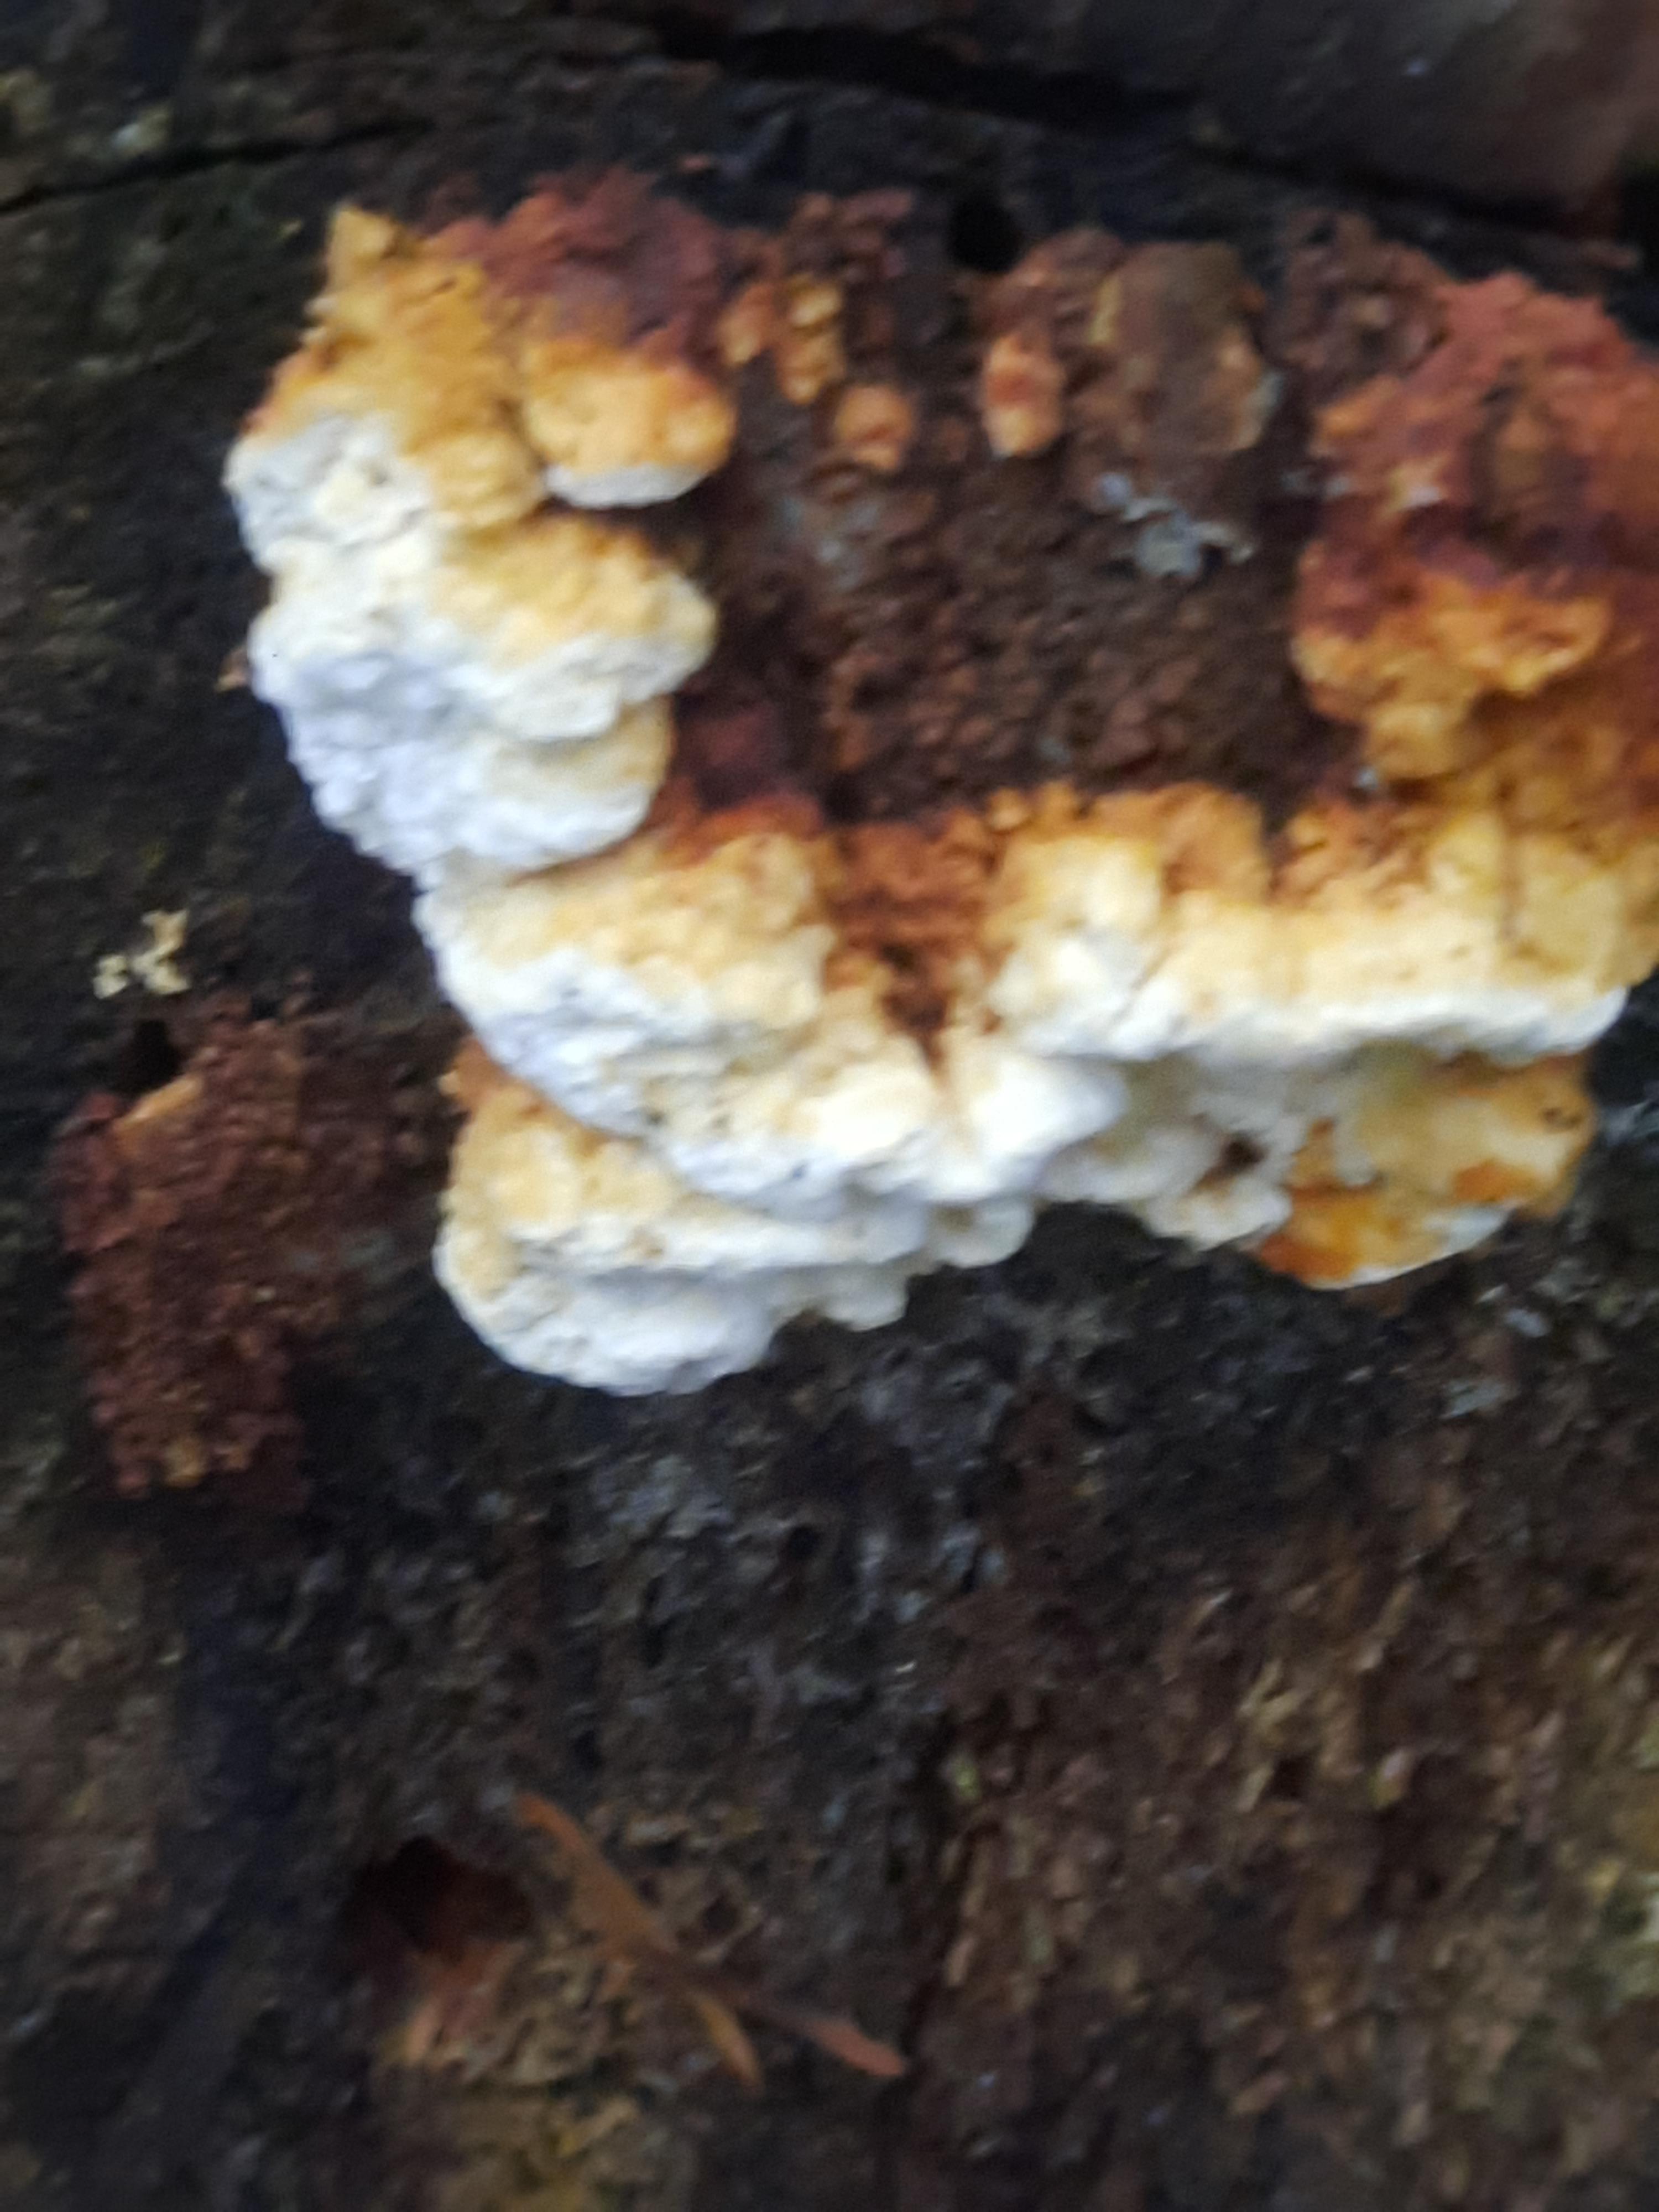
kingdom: Fungi
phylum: Basidiomycota
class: Agaricomycetes
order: Polyporales
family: Fomitopsidaceae
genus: Neoantrodia
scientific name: Neoantrodia serialis
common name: række-sejporesvamp
